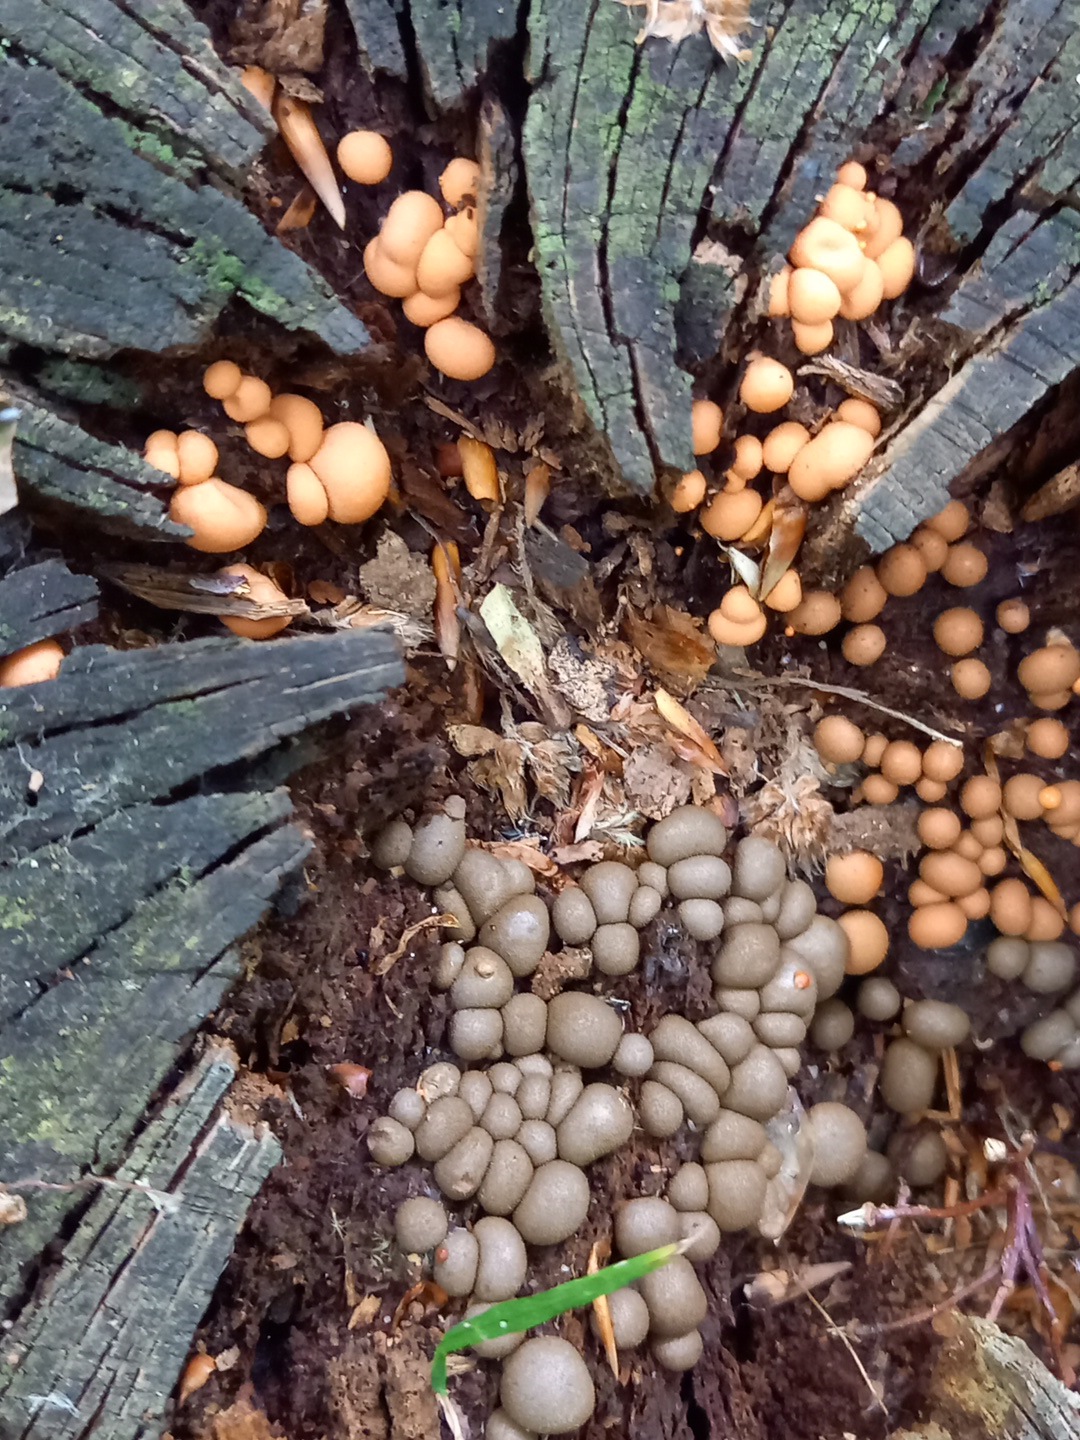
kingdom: Protozoa
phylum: Mycetozoa
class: Myxomycetes
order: Cribrariales
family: Tubiferaceae
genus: Lycogala
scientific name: Lycogala epidendrum
